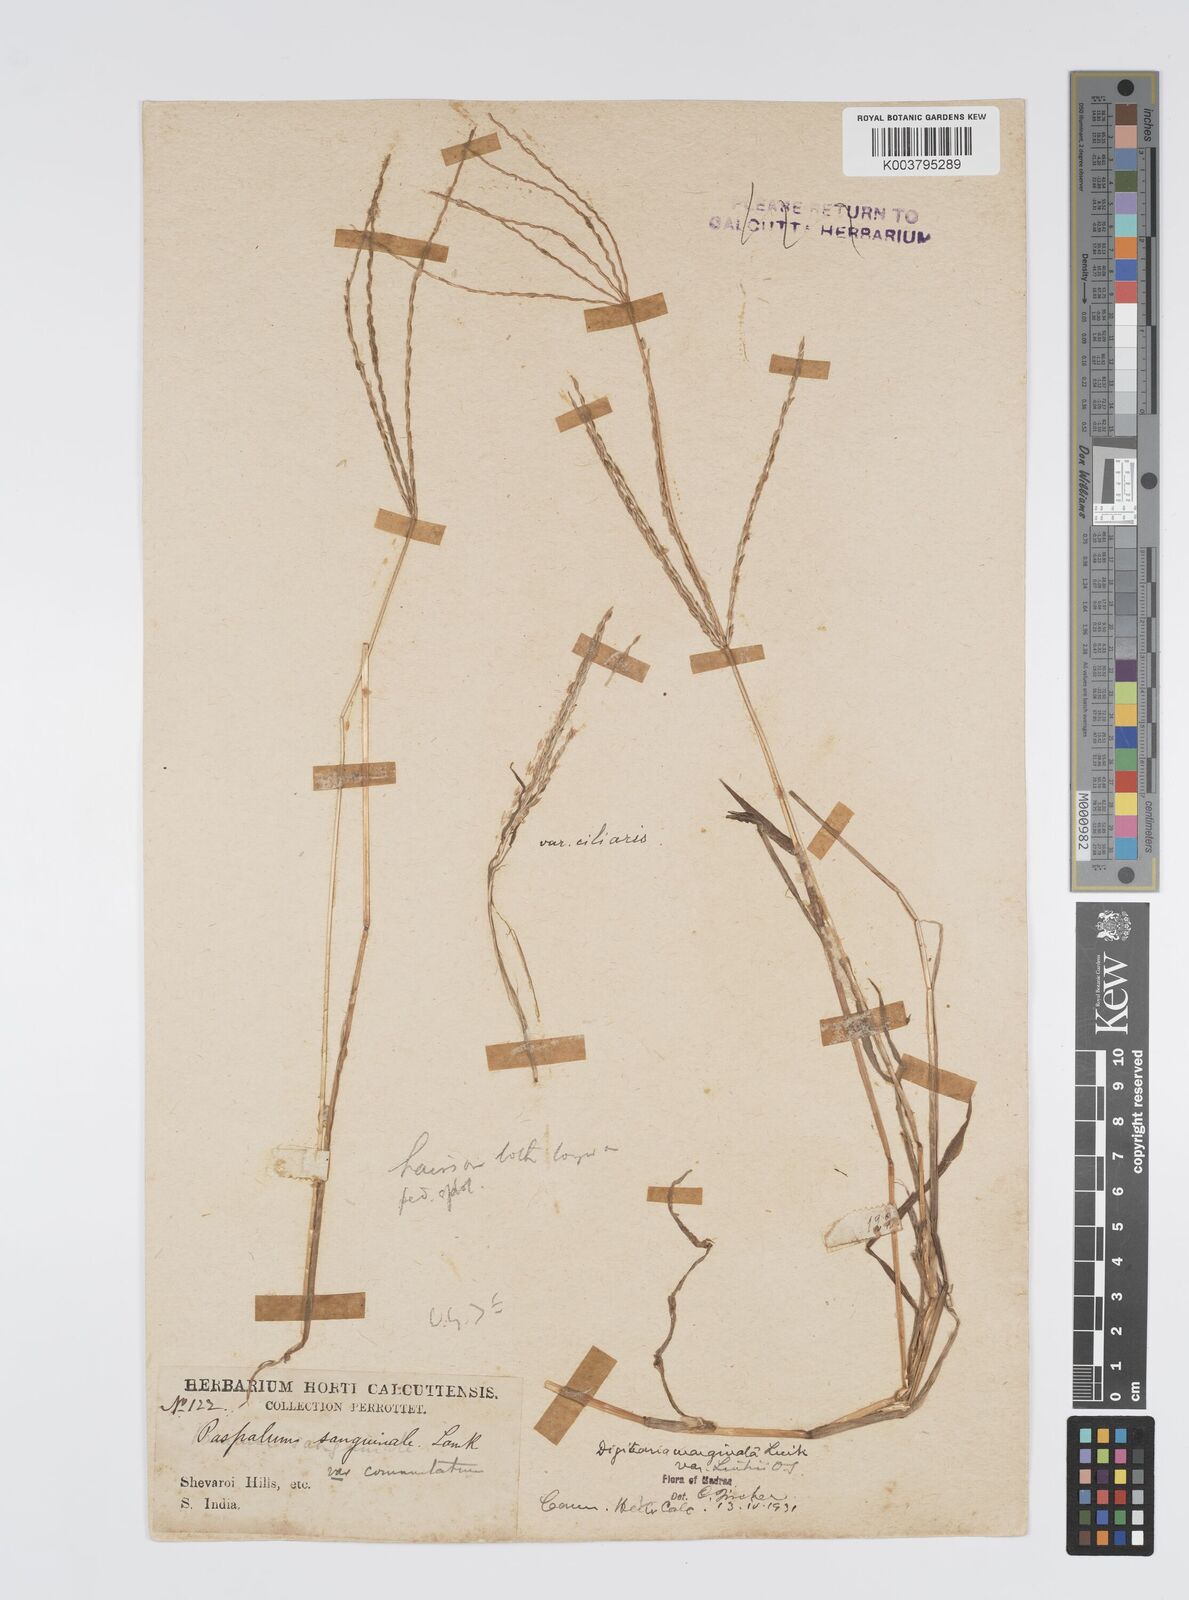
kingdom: Plantae
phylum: Tracheophyta
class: Liliopsida
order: Poales
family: Poaceae
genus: Digitaria
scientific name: Digitaria spec
